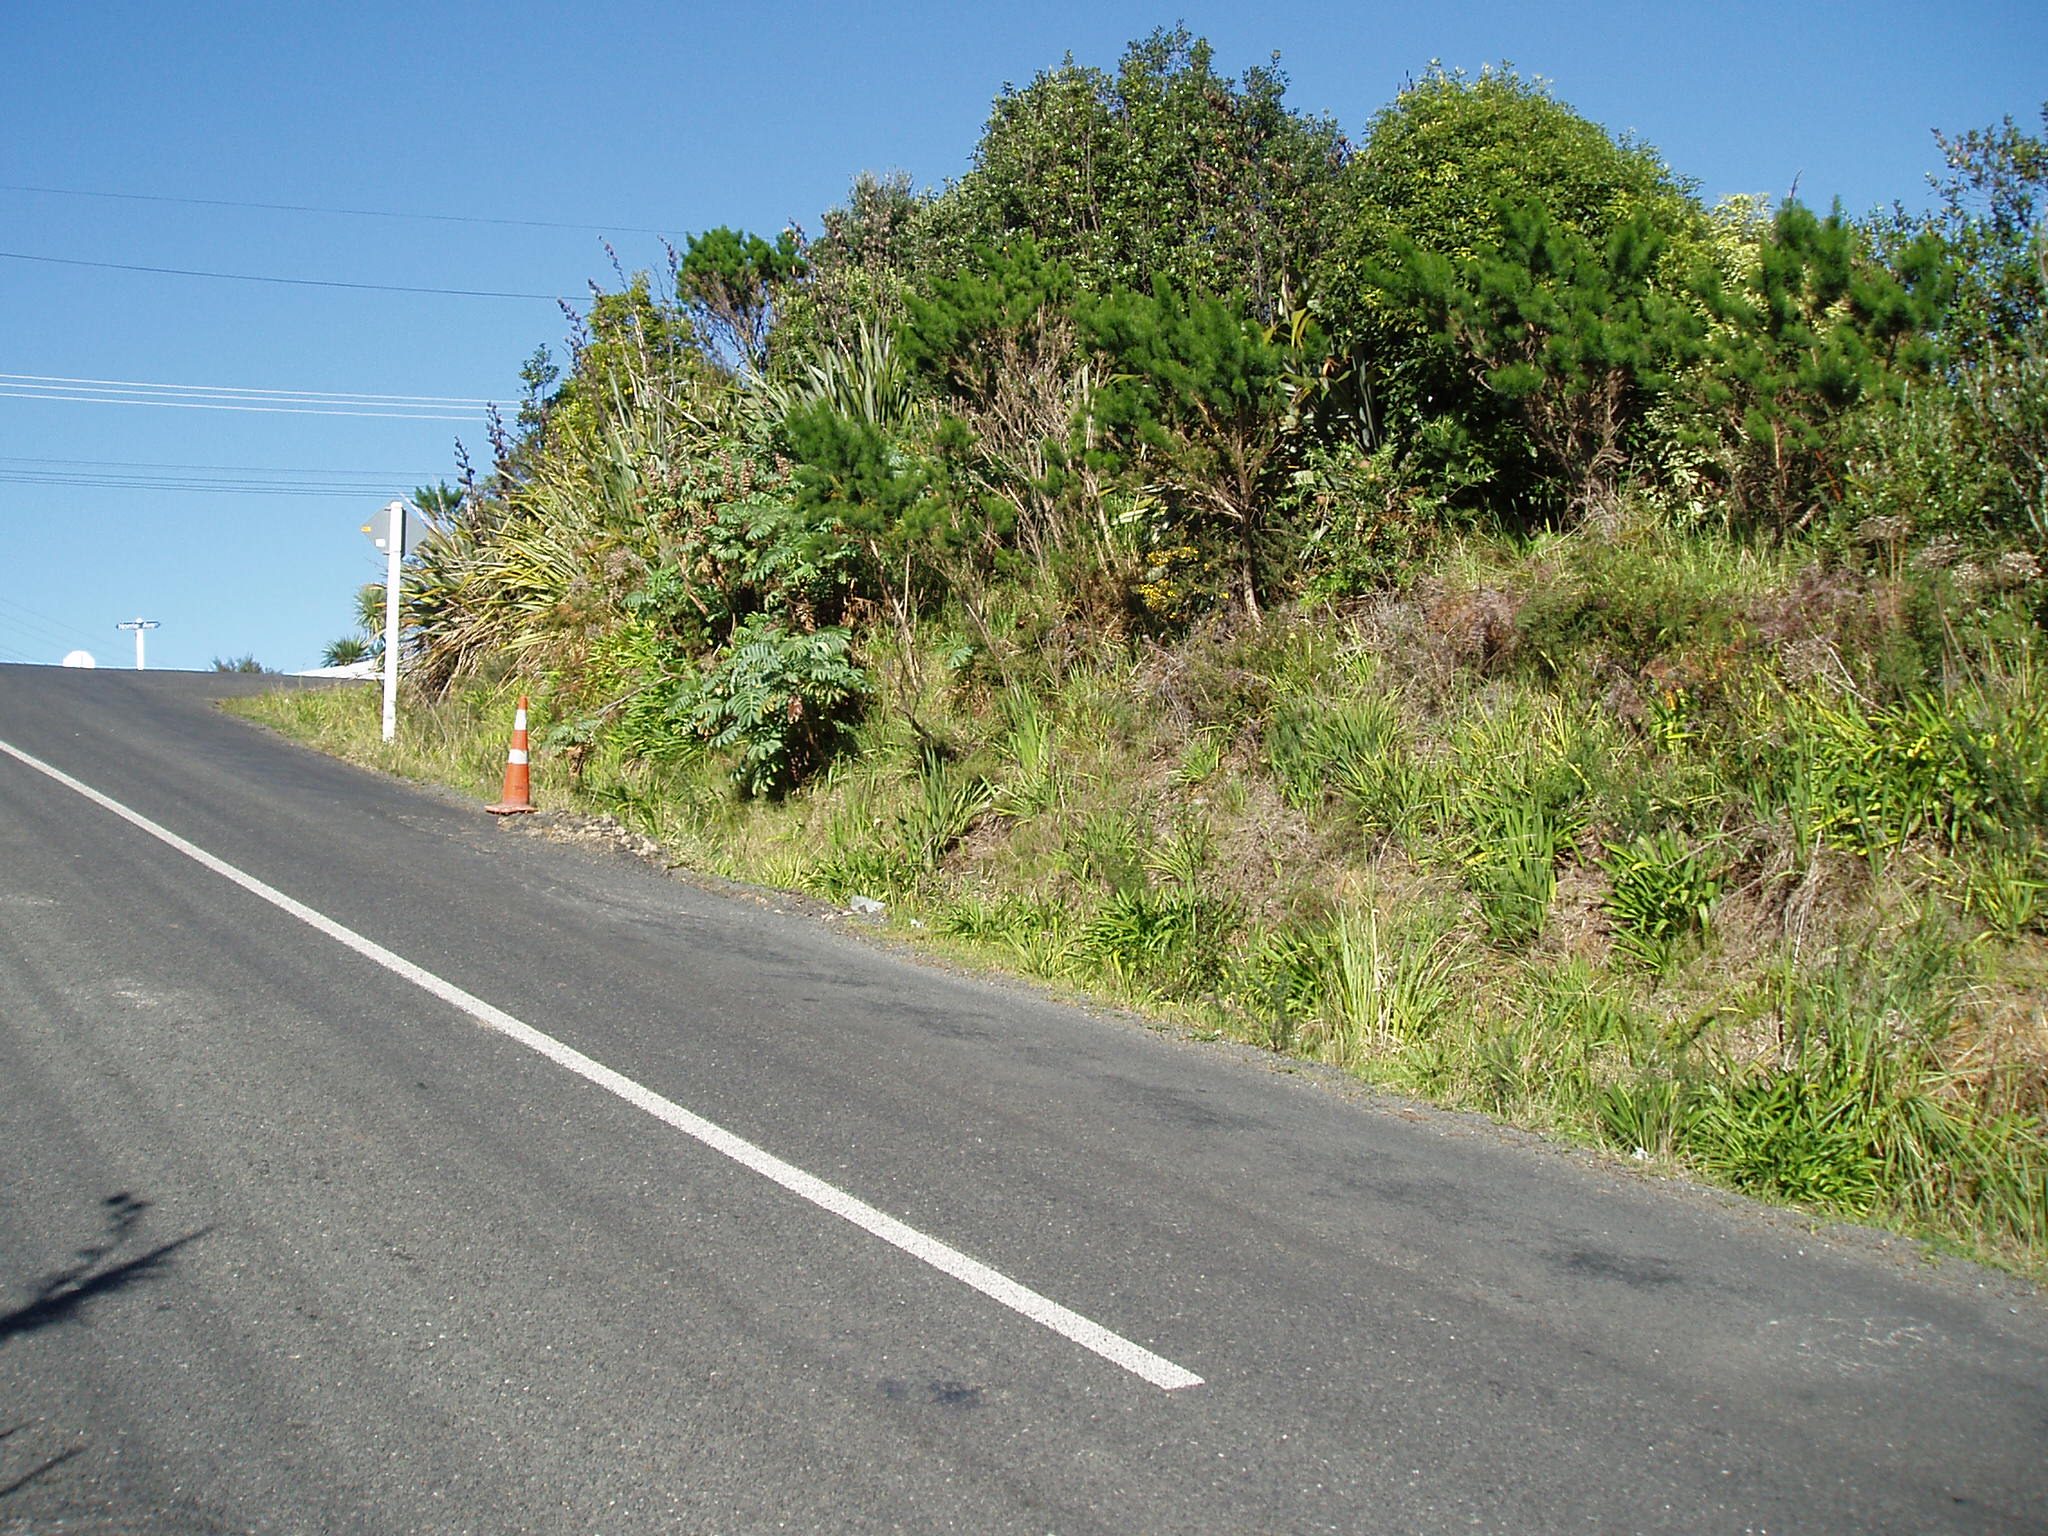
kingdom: Plantae
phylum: Tracheophyta
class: Magnoliopsida
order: Proteales
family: Proteaceae
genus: Banksia
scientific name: Banksia integrifolia
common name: White-honeysuckle
